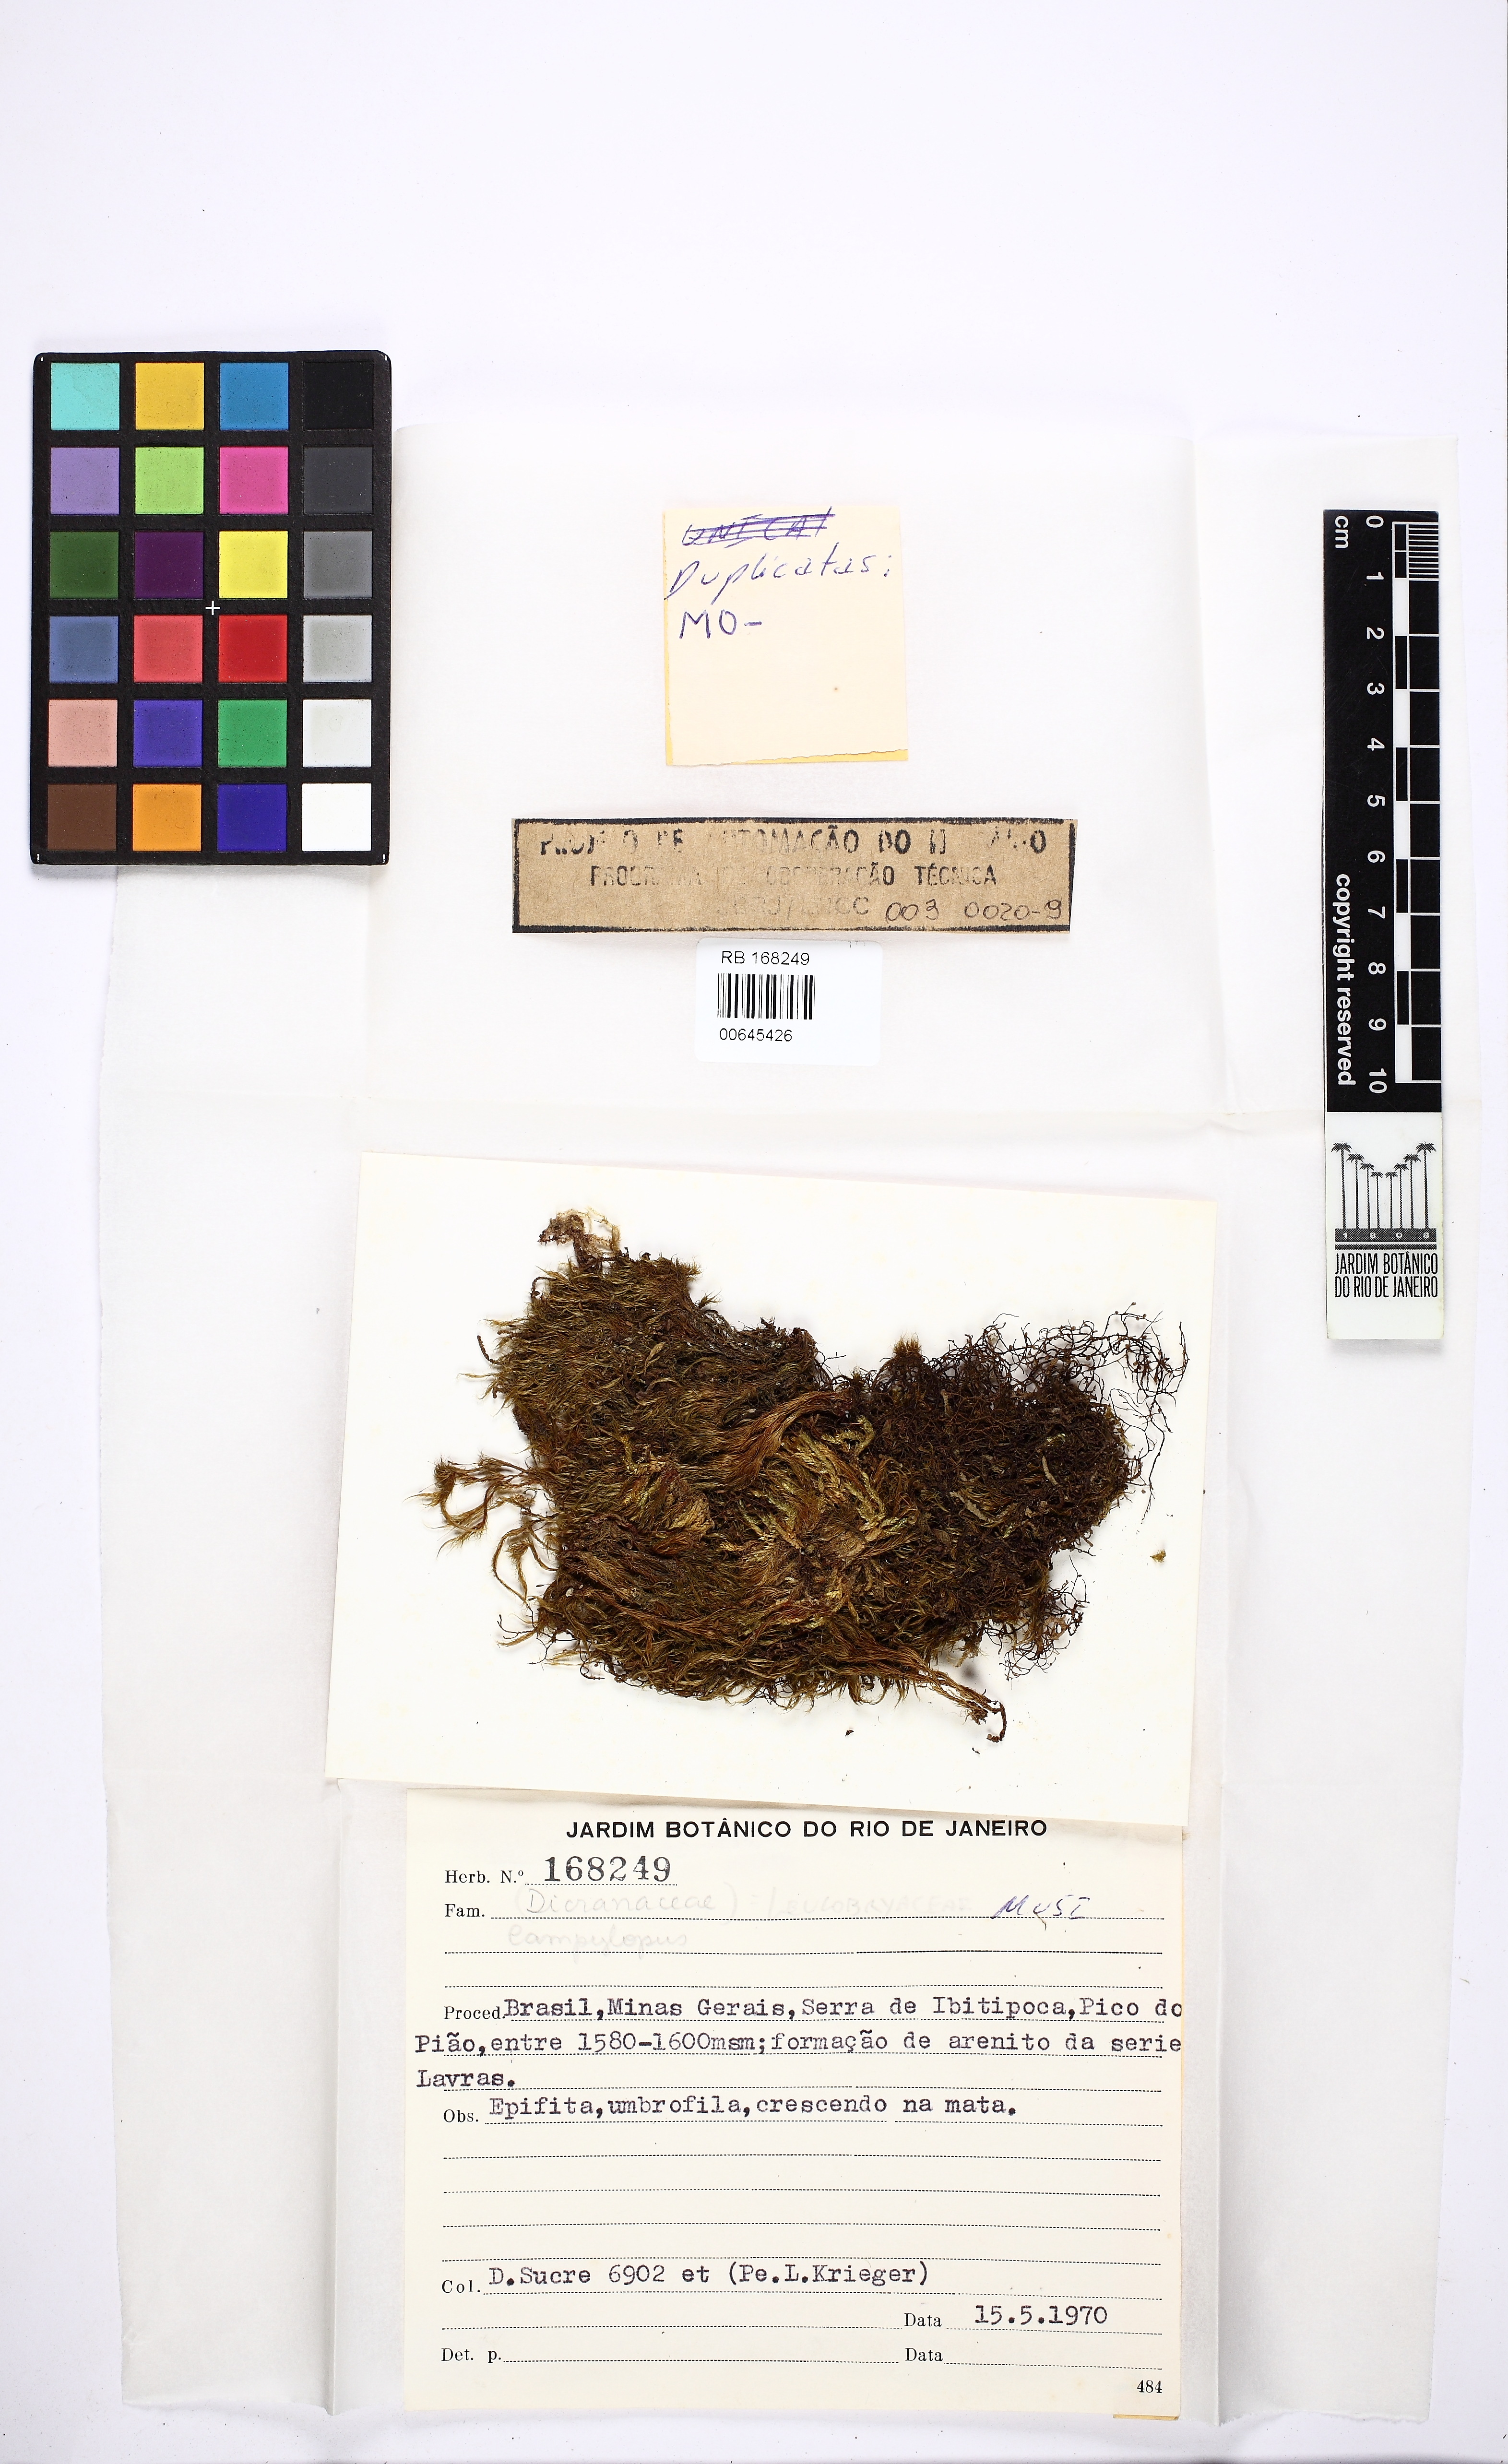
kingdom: Plantae
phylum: Bryophyta
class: Bryopsida
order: Dicranales
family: Leucobryaceae
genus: Campylopus
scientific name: Campylopus
